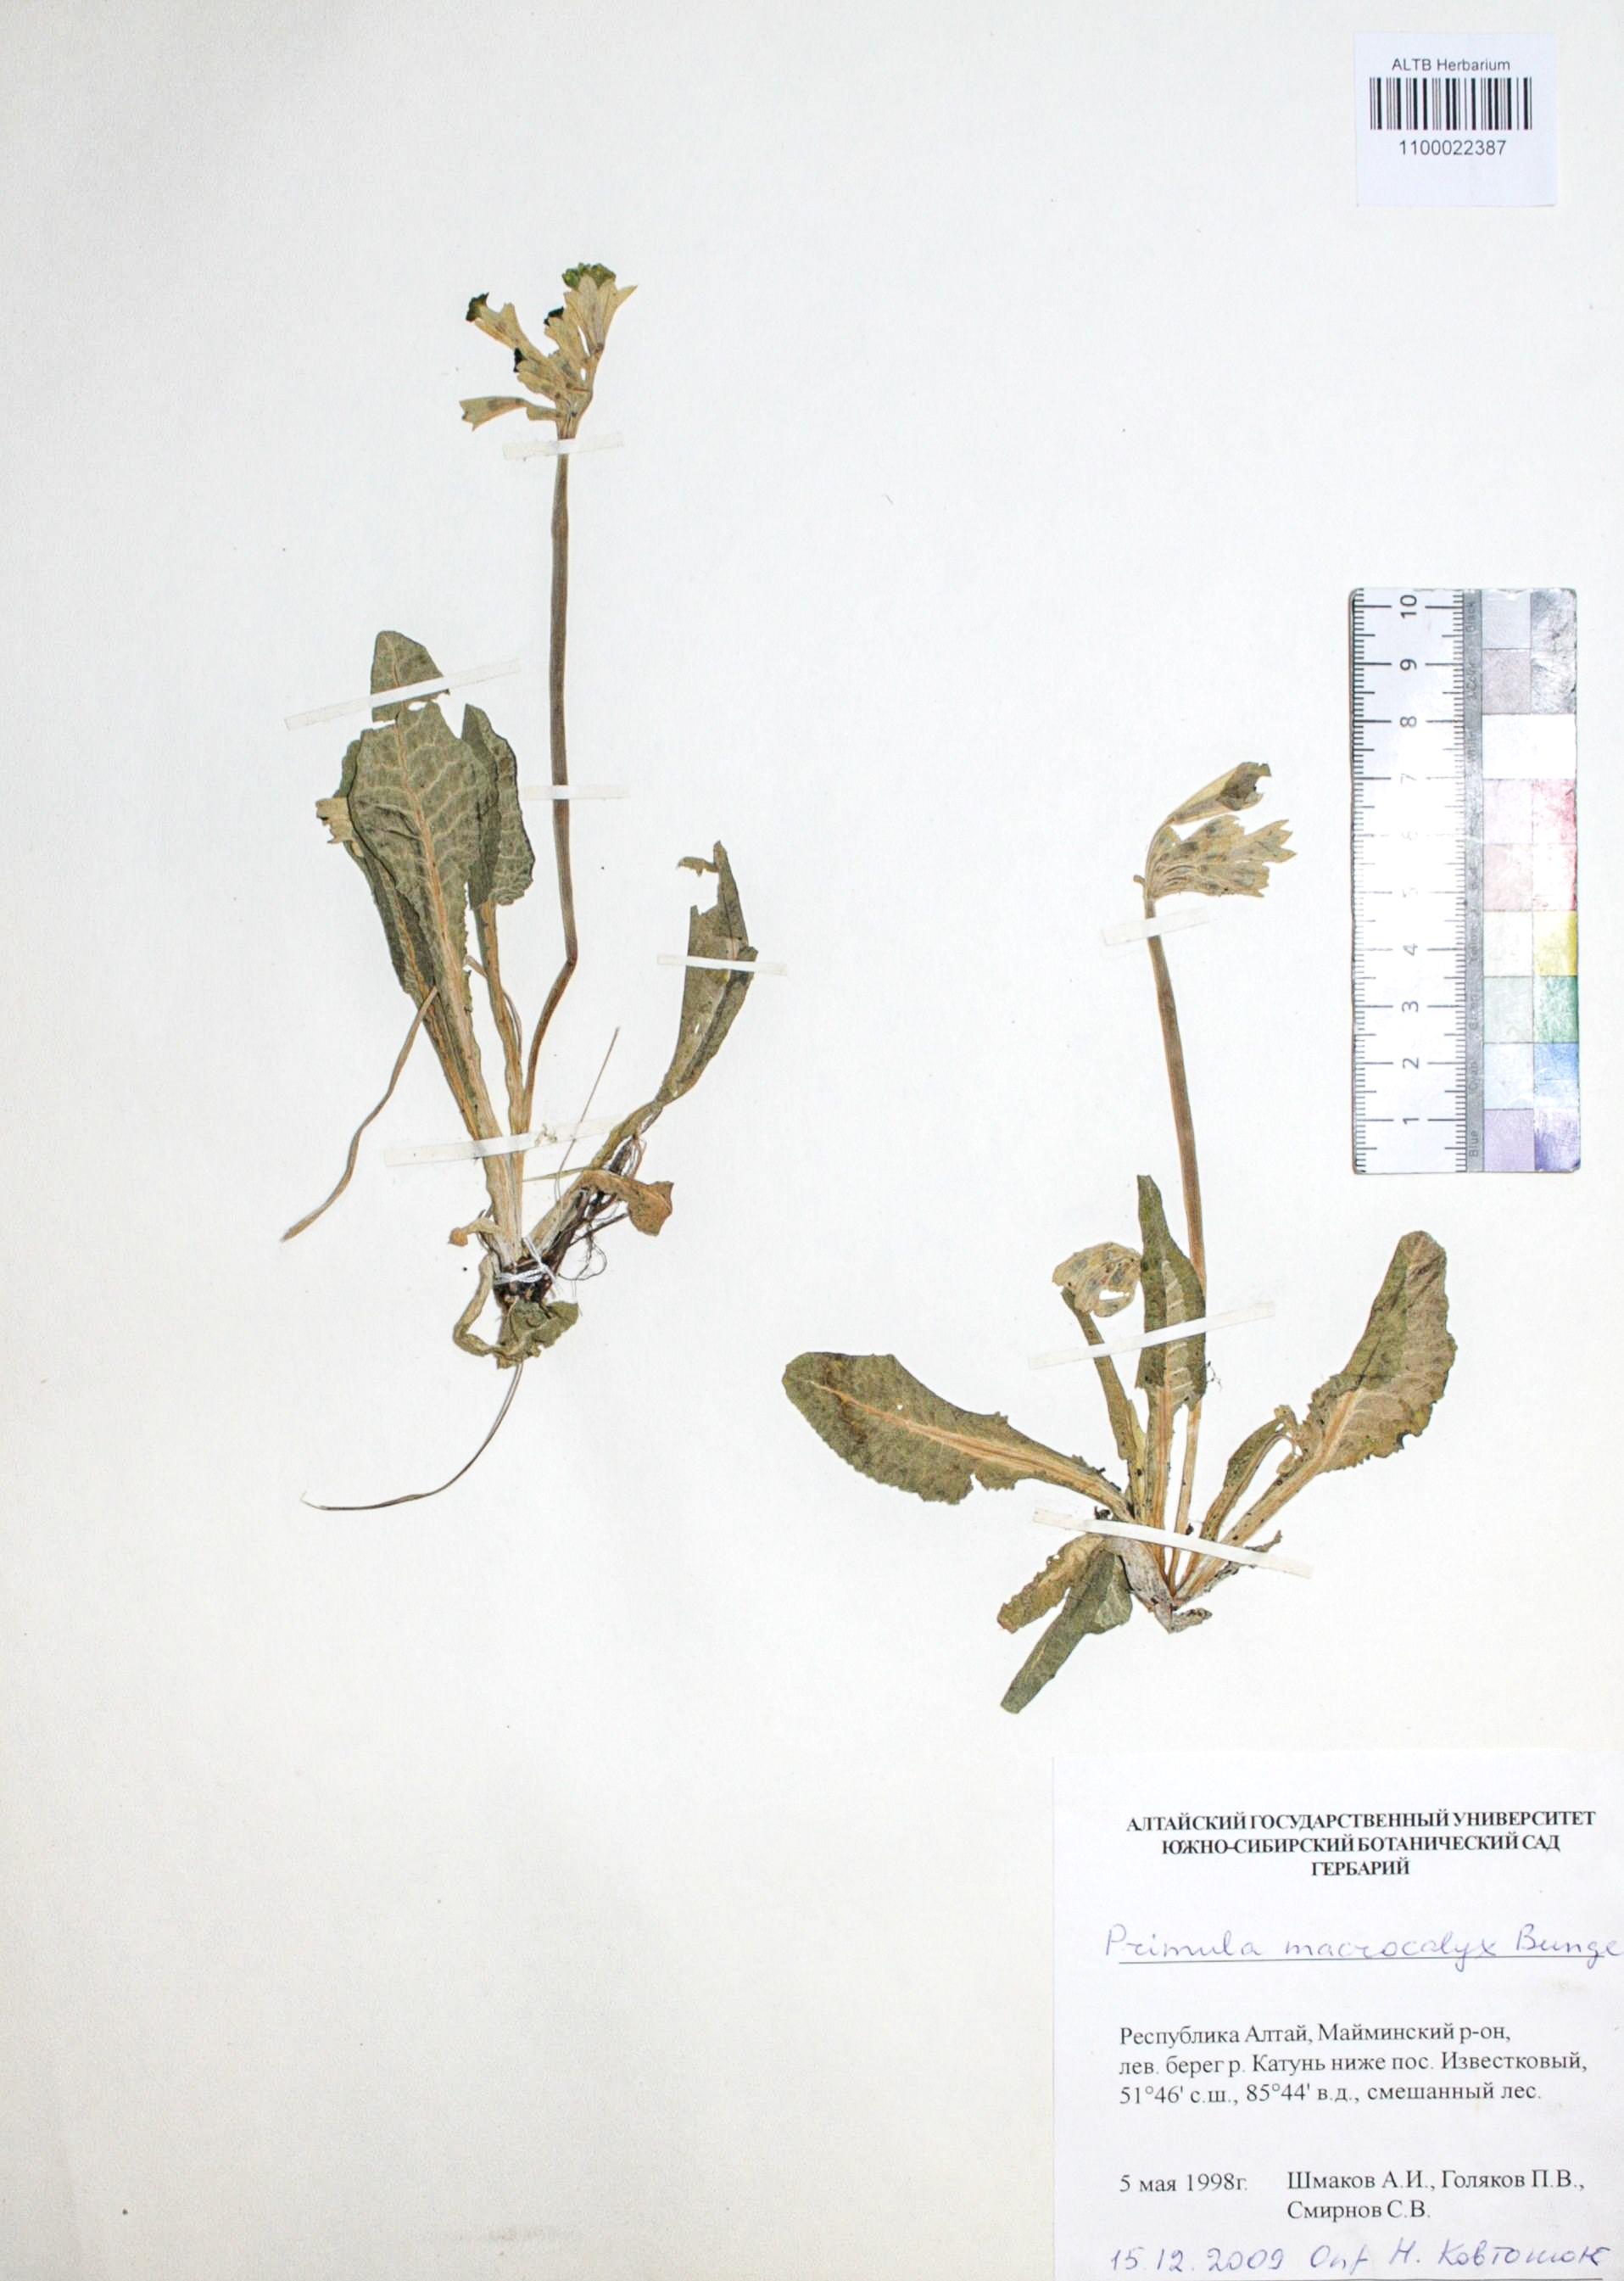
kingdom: Plantae
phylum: Tracheophyta
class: Magnoliopsida
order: Ericales
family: Primulaceae
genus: Primula
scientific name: Primula veris
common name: Cowslip
